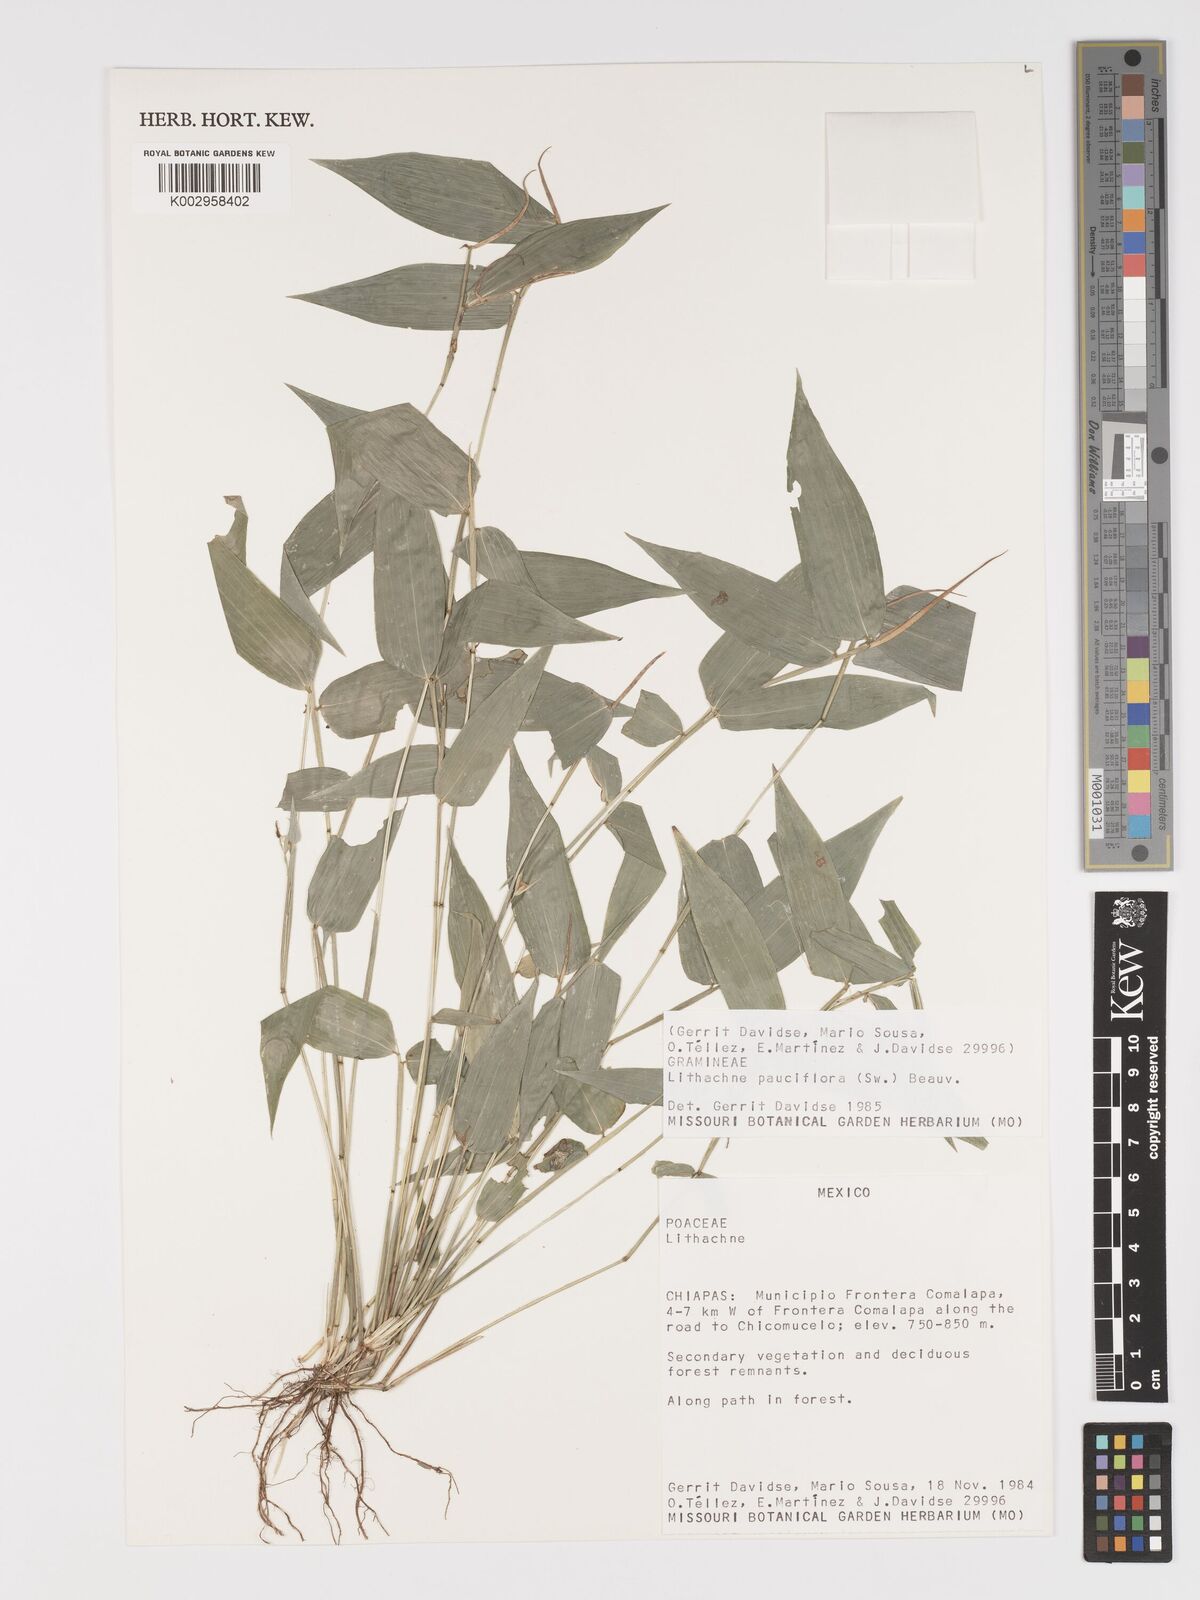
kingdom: Plantae
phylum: Tracheophyta
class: Liliopsida
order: Poales
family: Poaceae
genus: Lithachne
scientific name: Lithachne pauciflora
